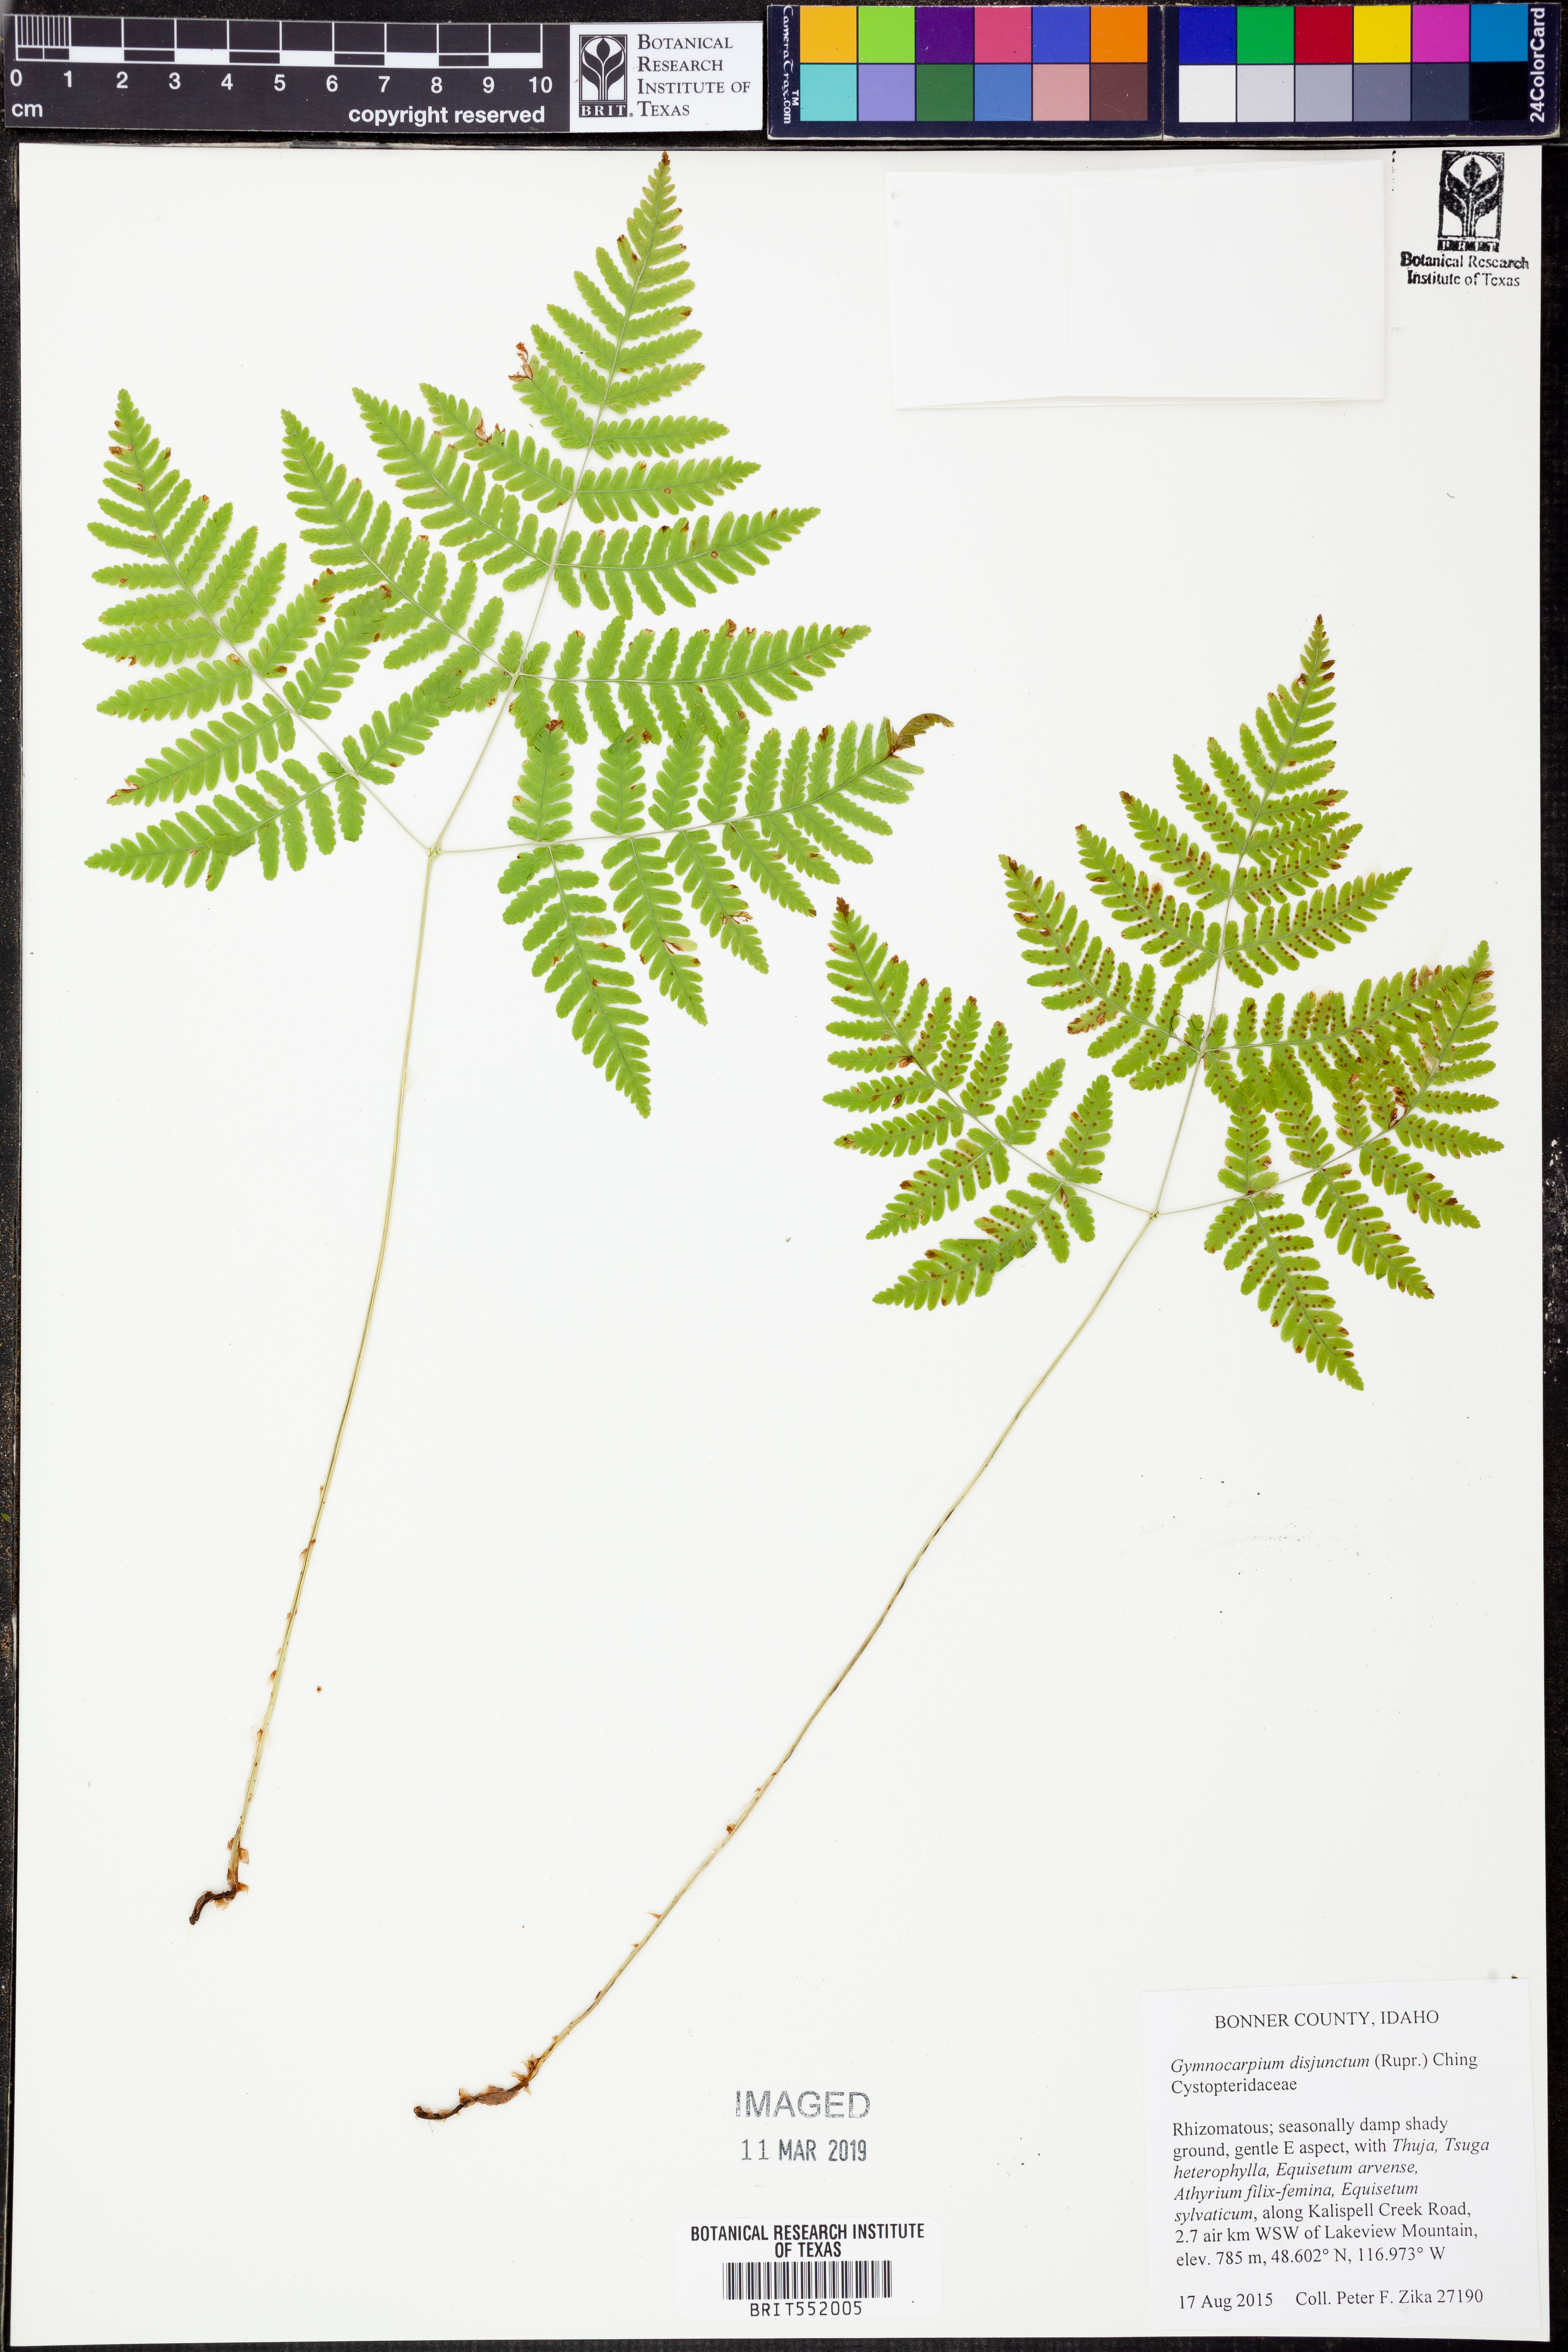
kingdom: Plantae
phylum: Tracheophyta
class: Polypodiopsida
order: Polypodiales
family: Cystopteridaceae
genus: Gymnocarpium
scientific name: Gymnocarpium disjunctum
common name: Western oak fern
